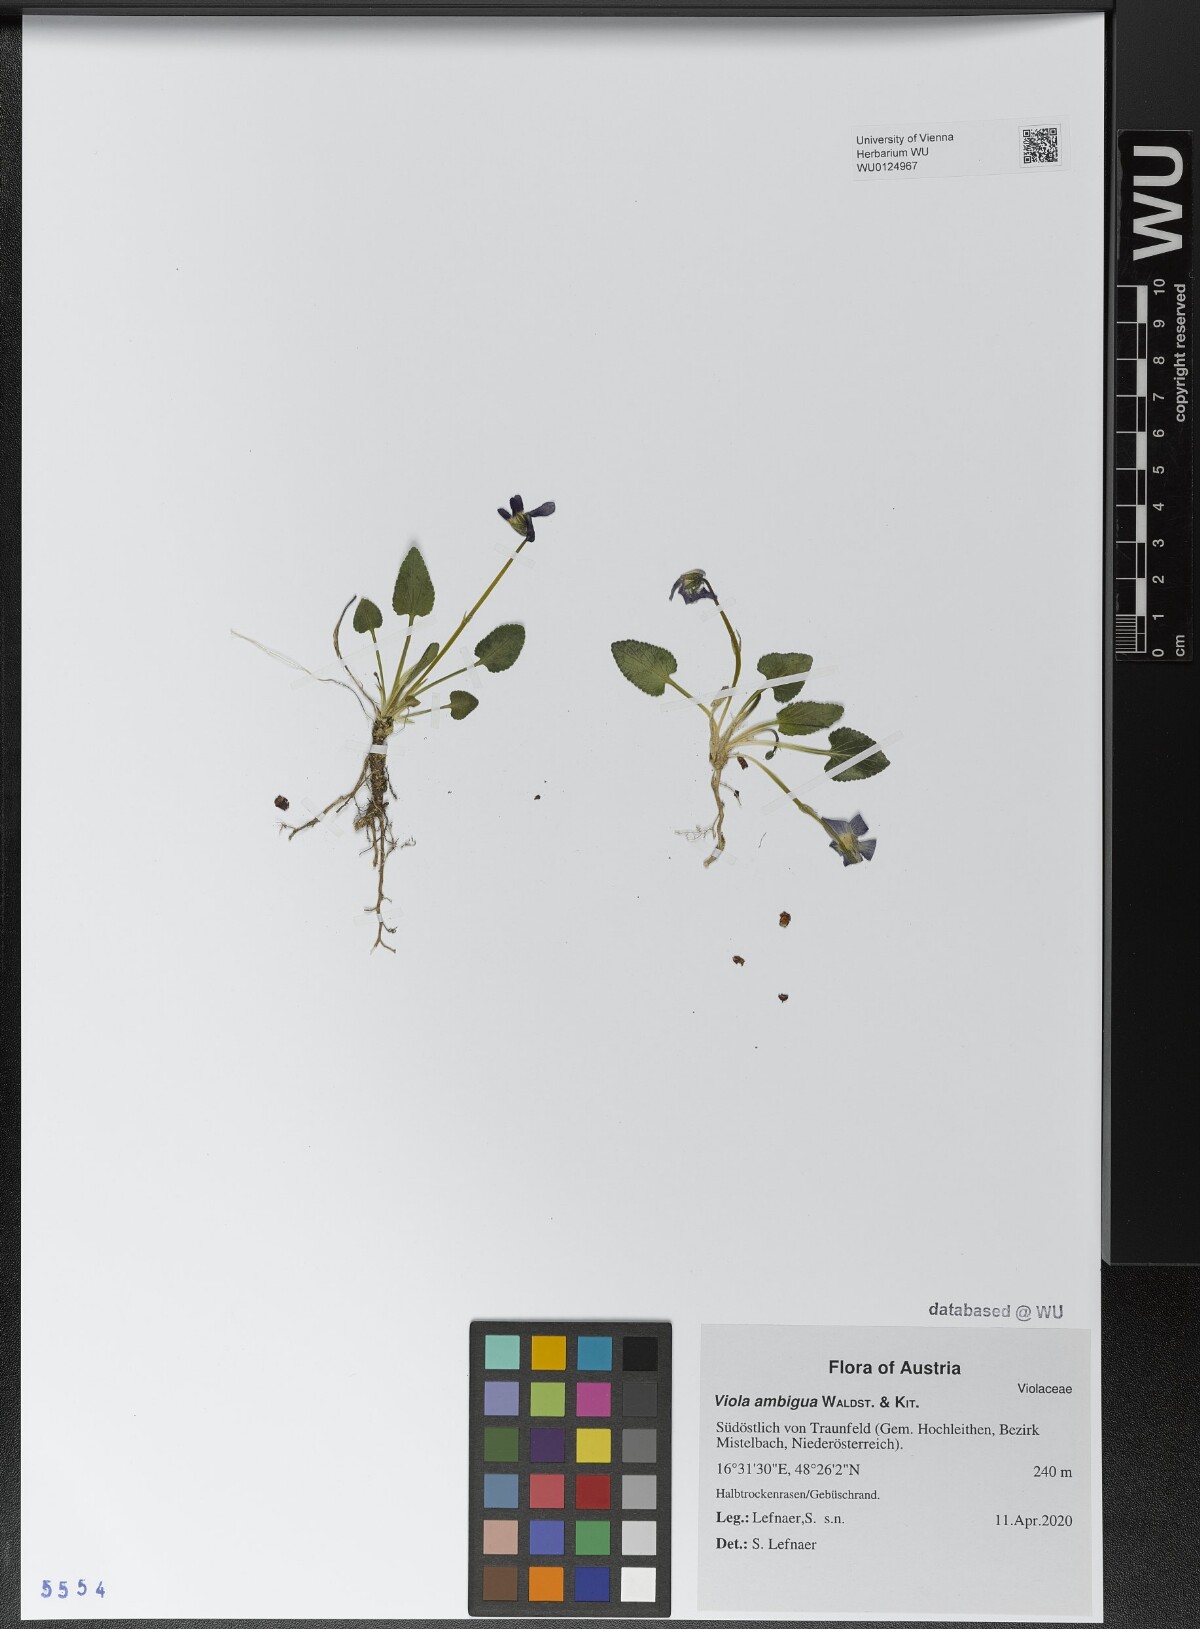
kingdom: Plantae
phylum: Tracheophyta
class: Magnoliopsida
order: Malpighiales
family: Violaceae
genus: Viola
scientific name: Viola ambigua
